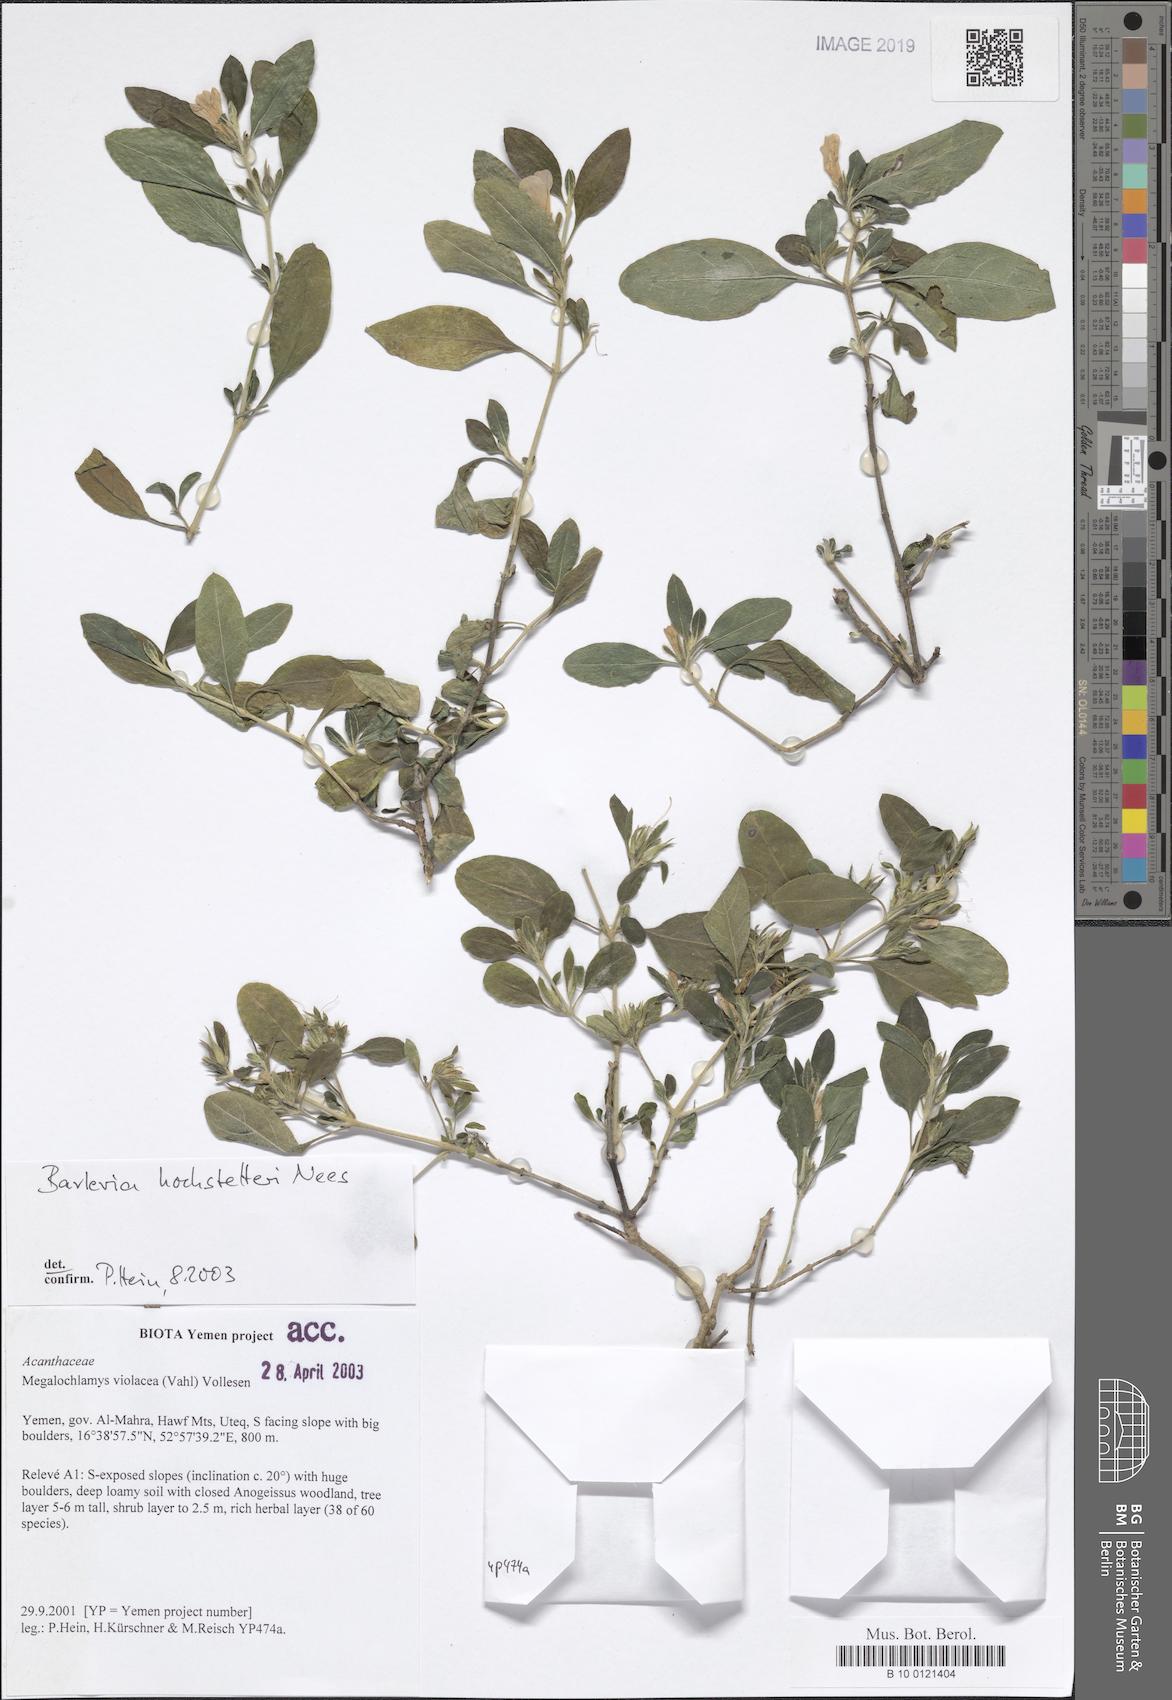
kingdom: Plantae
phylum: Tracheophyta
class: Magnoliopsida
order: Lamiales
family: Acanthaceae
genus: Barleria
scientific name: Barleria hochstetteri
